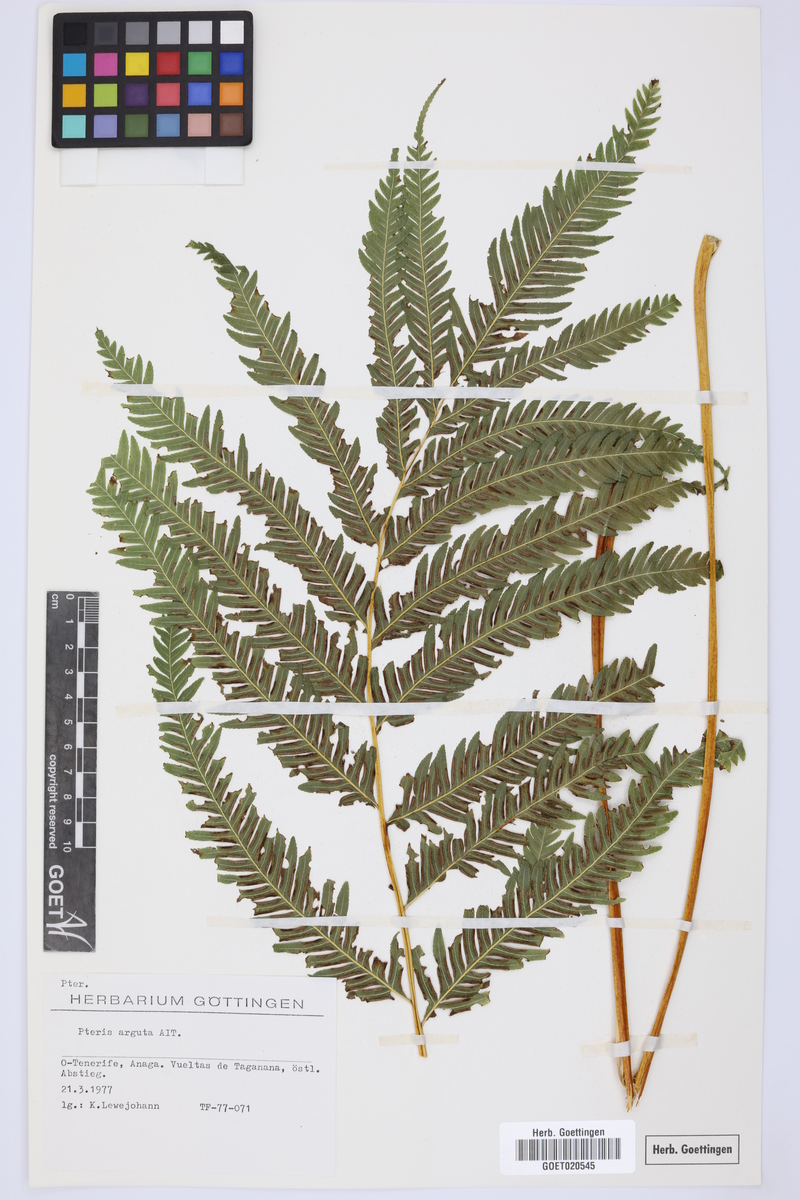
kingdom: Plantae
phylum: Tracheophyta
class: Polypodiopsida
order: Polypodiales
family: Pteridaceae
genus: Pteris
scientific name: Pteris dentata
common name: Toothed brake
